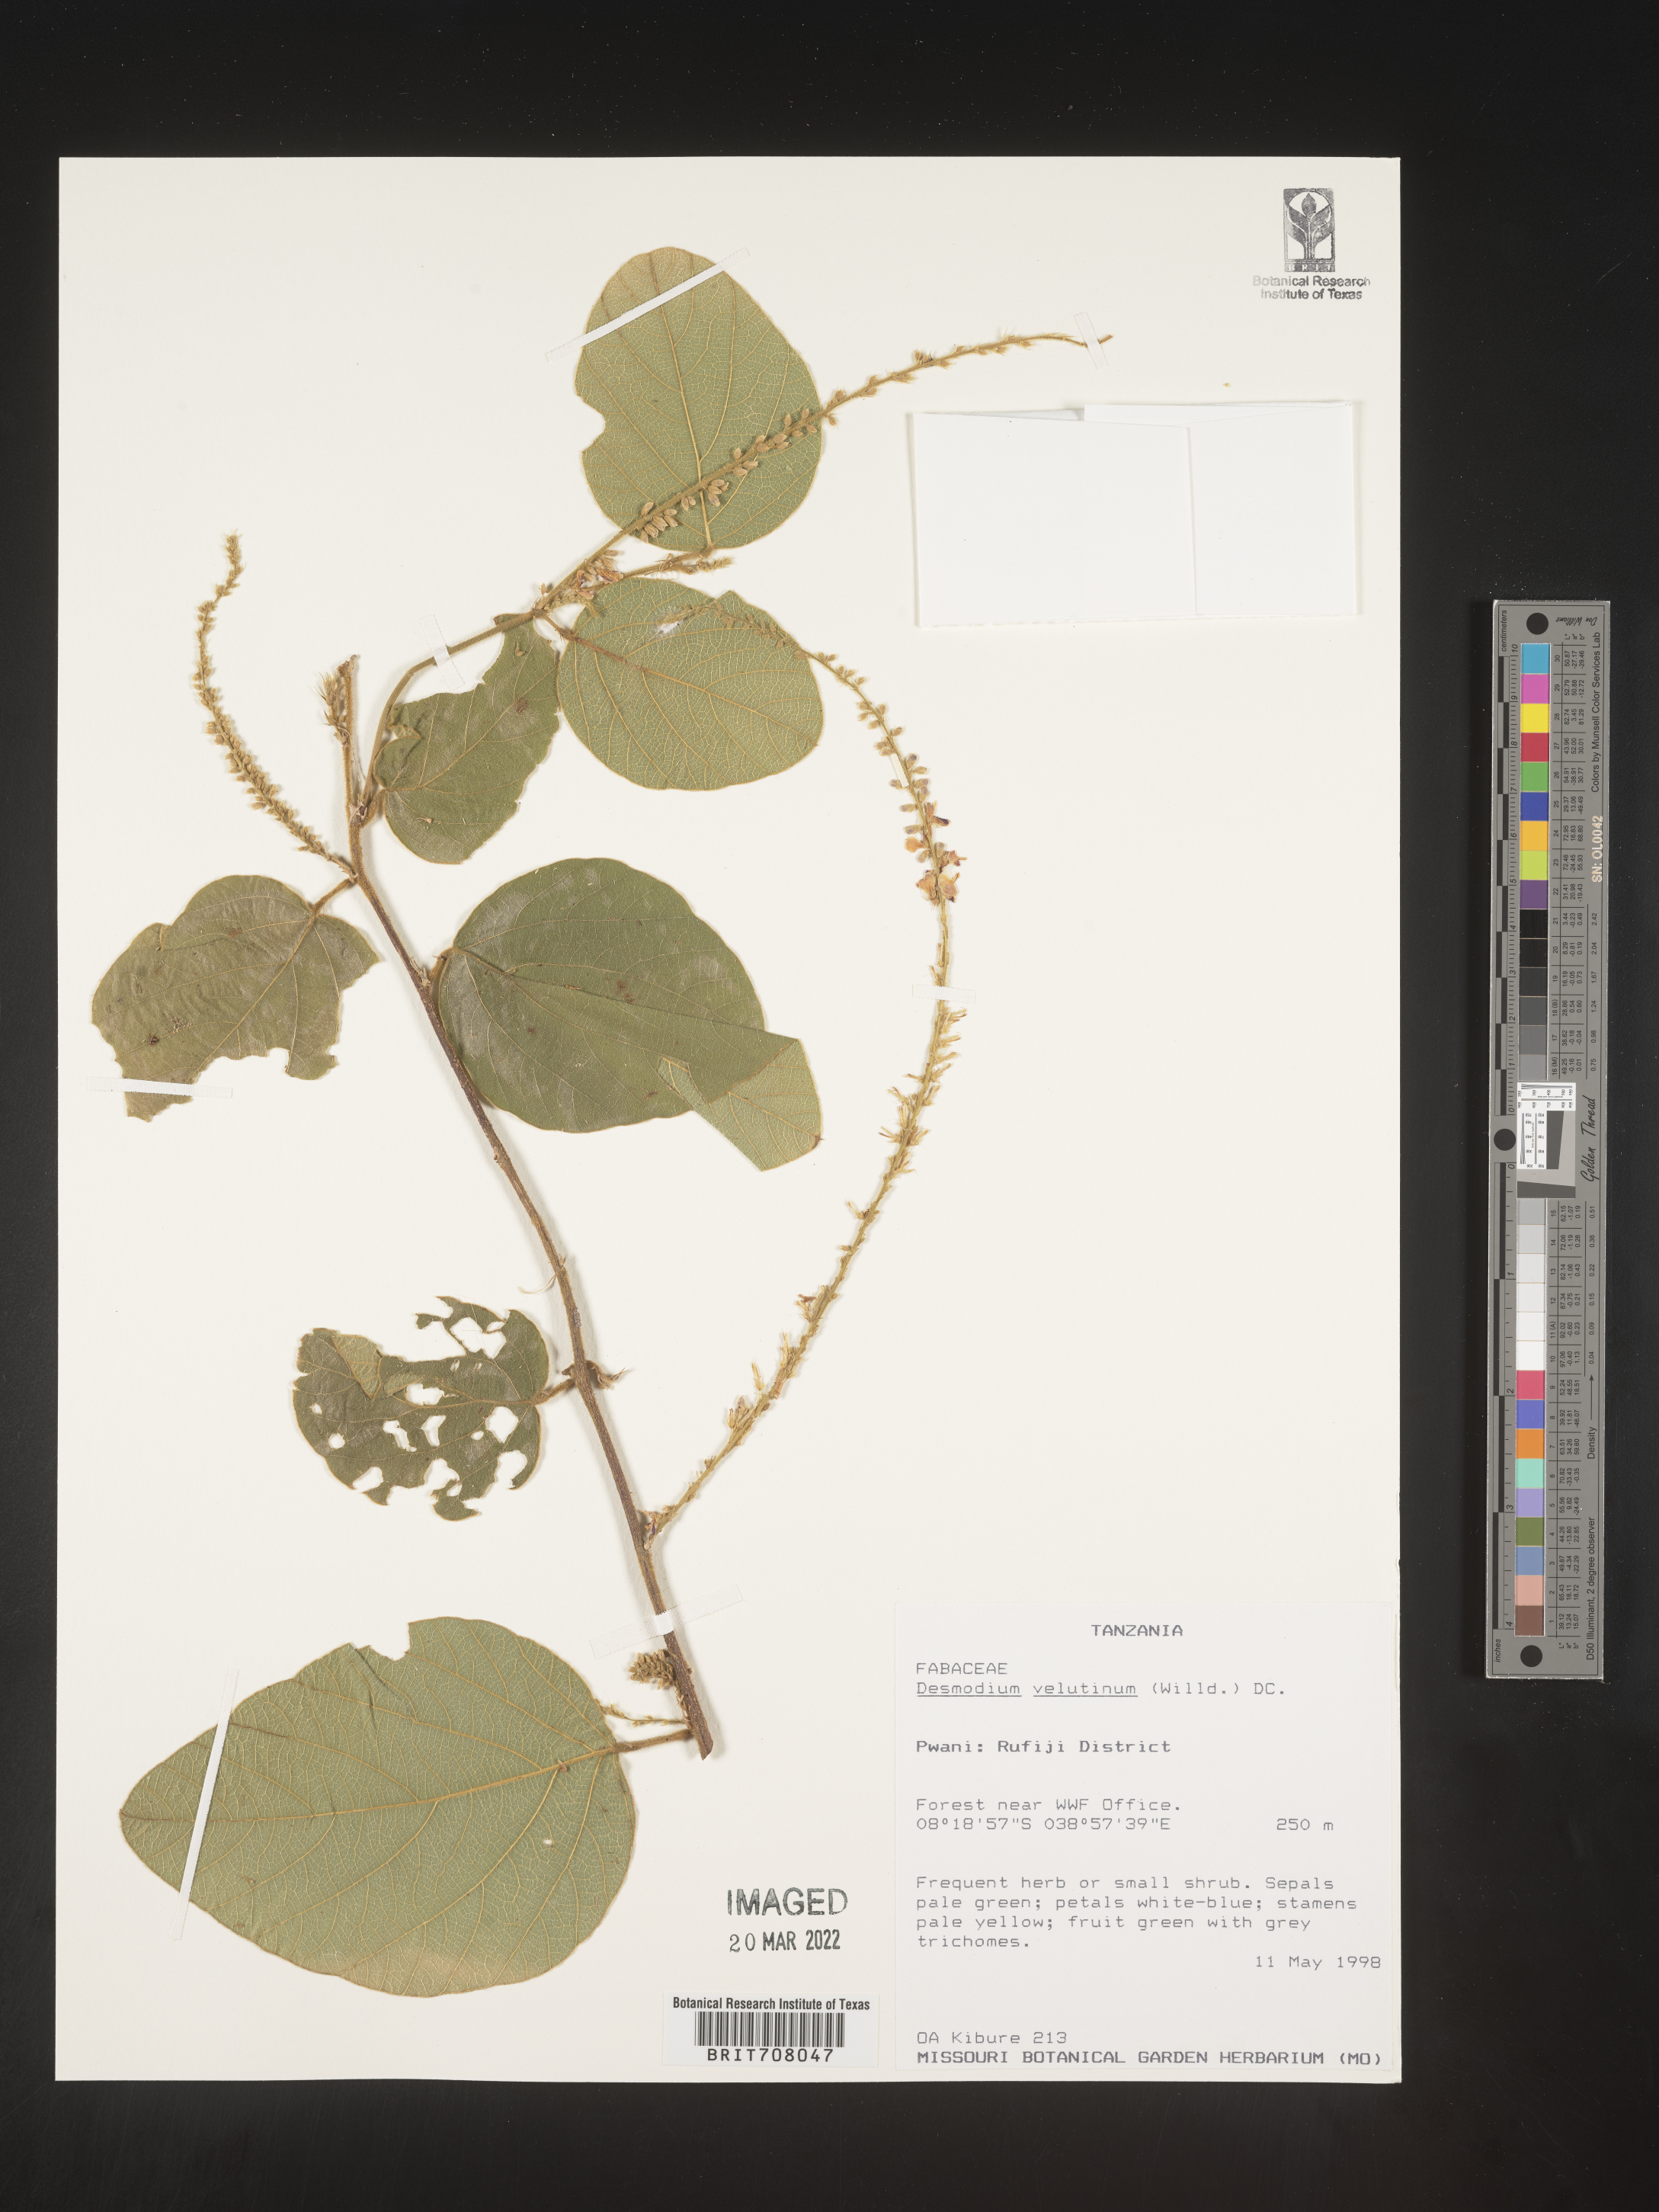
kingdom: Plantae
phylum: Tracheophyta
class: Magnoliopsida
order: Fabales
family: Fabaceae
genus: Desmodium
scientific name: Desmodium
